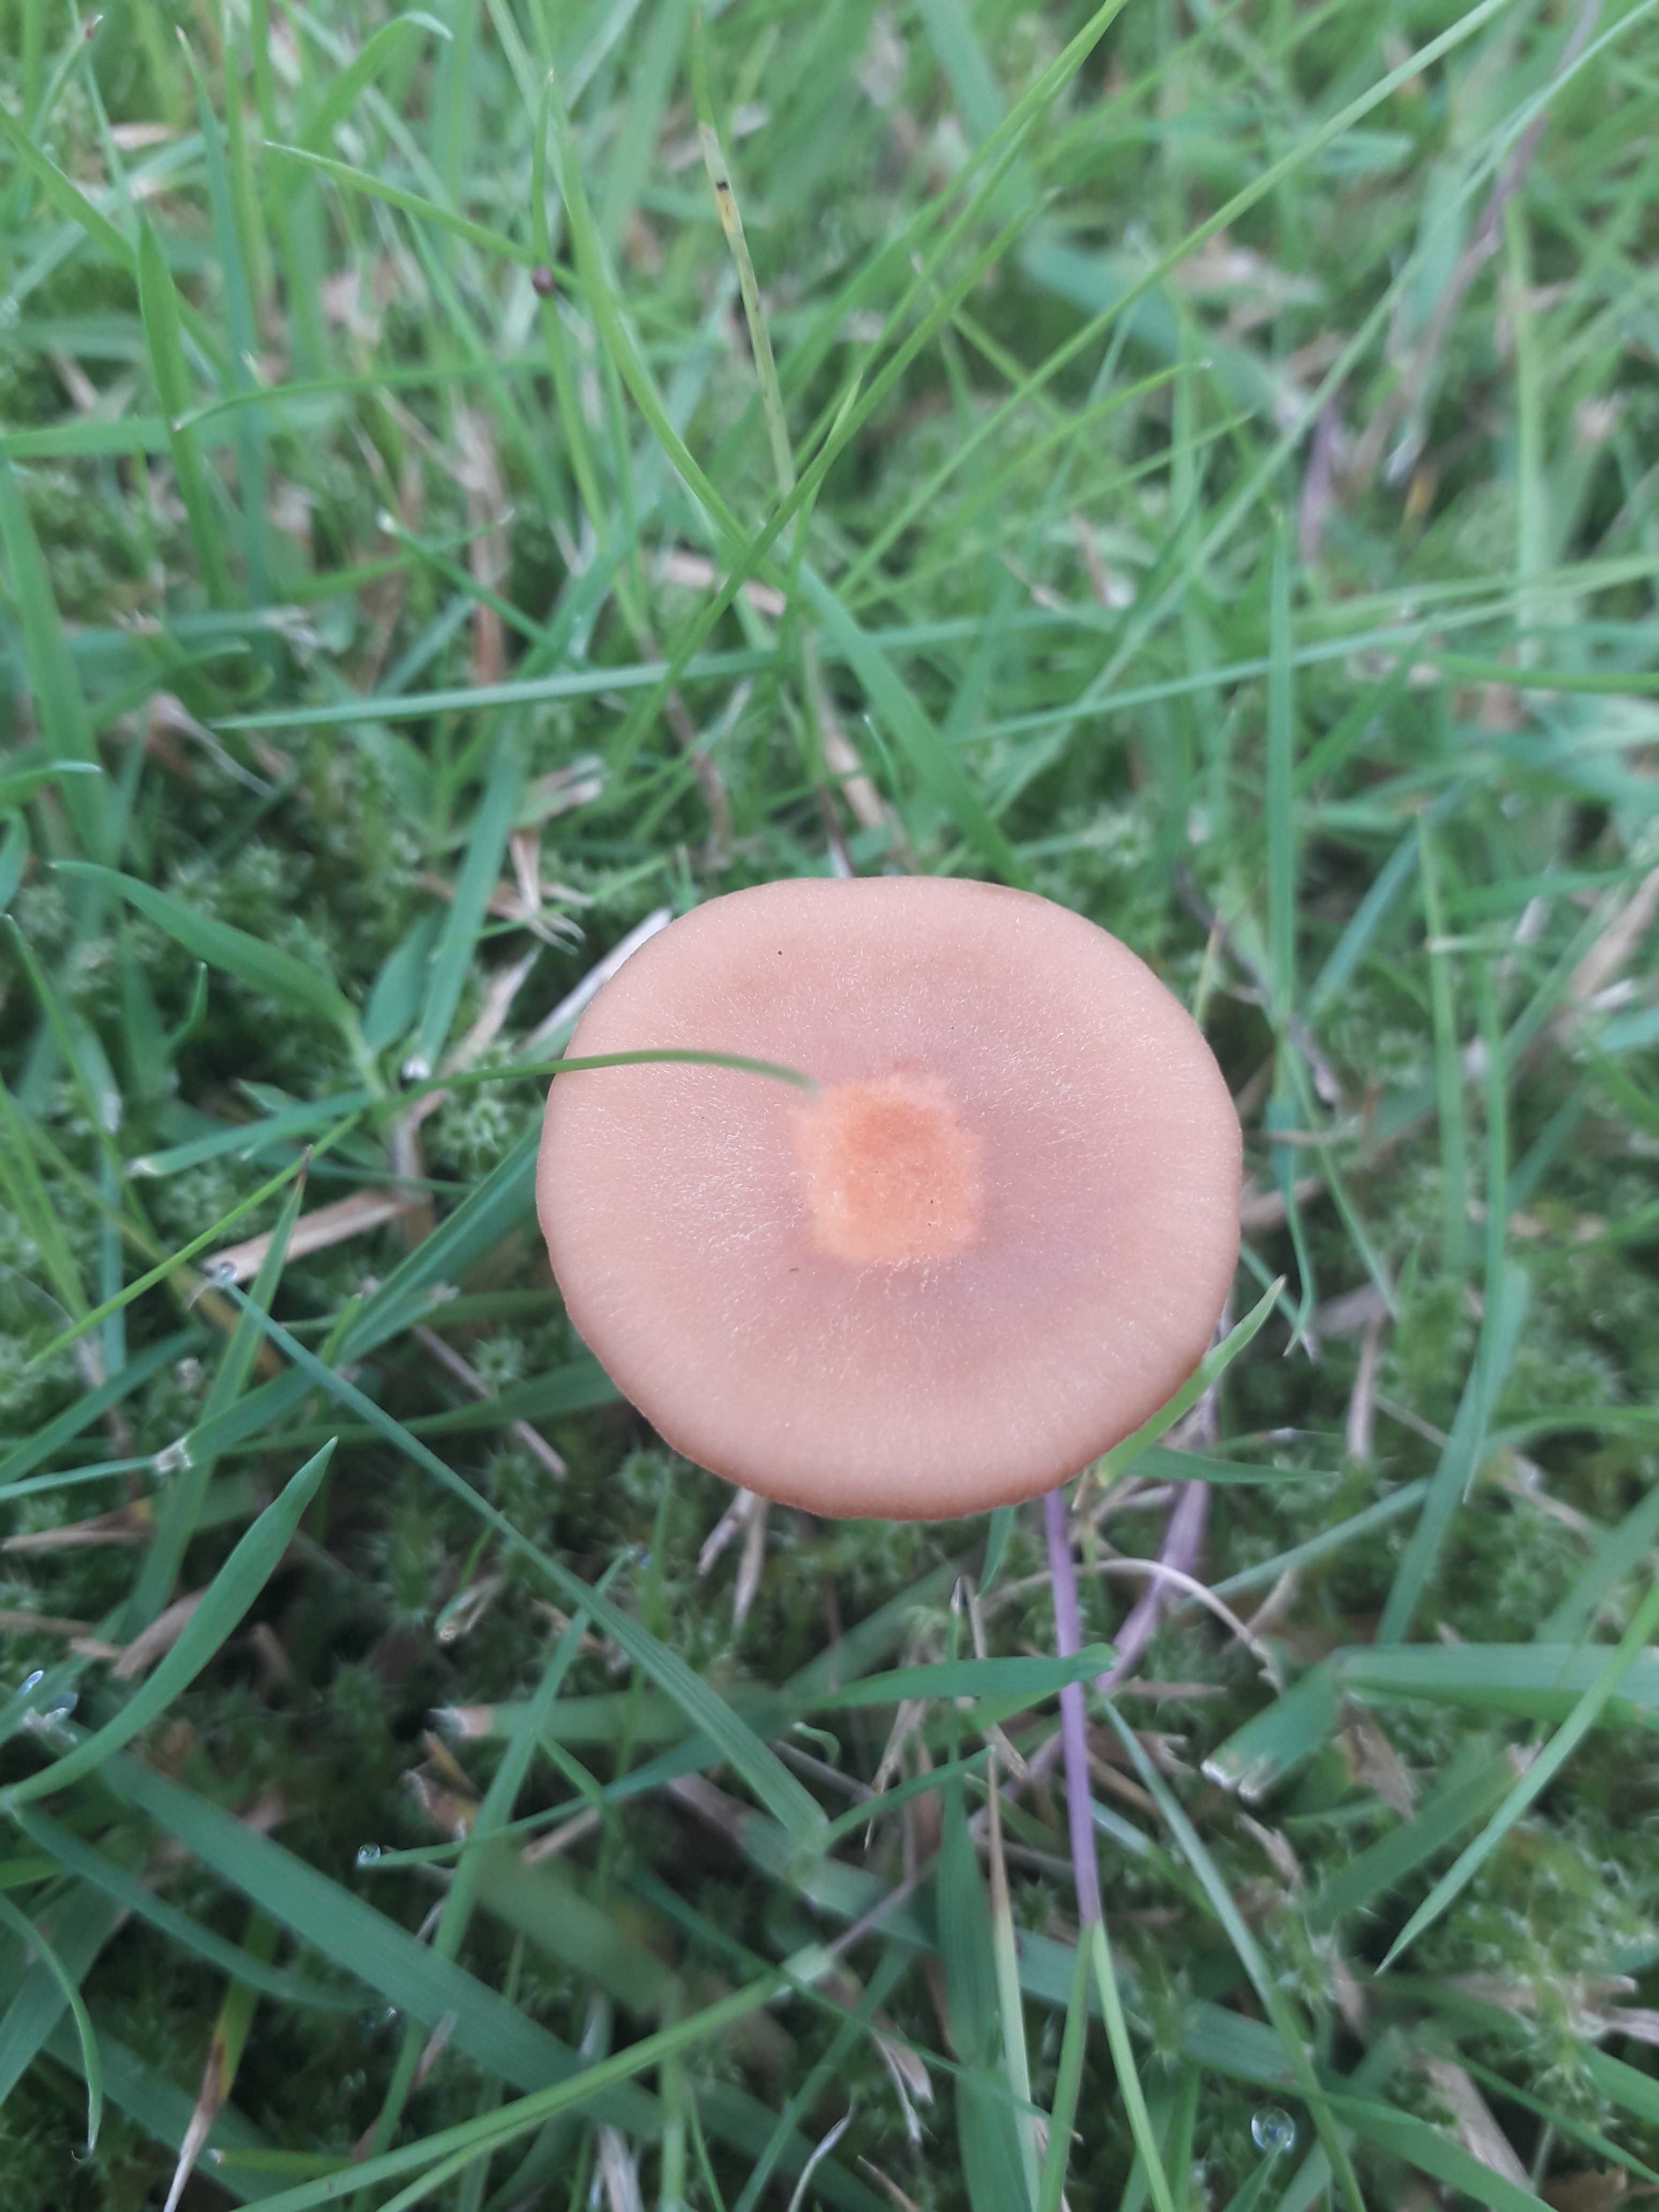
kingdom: Fungi
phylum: Basidiomycota
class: Agaricomycetes
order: Agaricales
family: Hydnangiaceae
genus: Laccaria
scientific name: Laccaria laccata
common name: rød ametysthat
